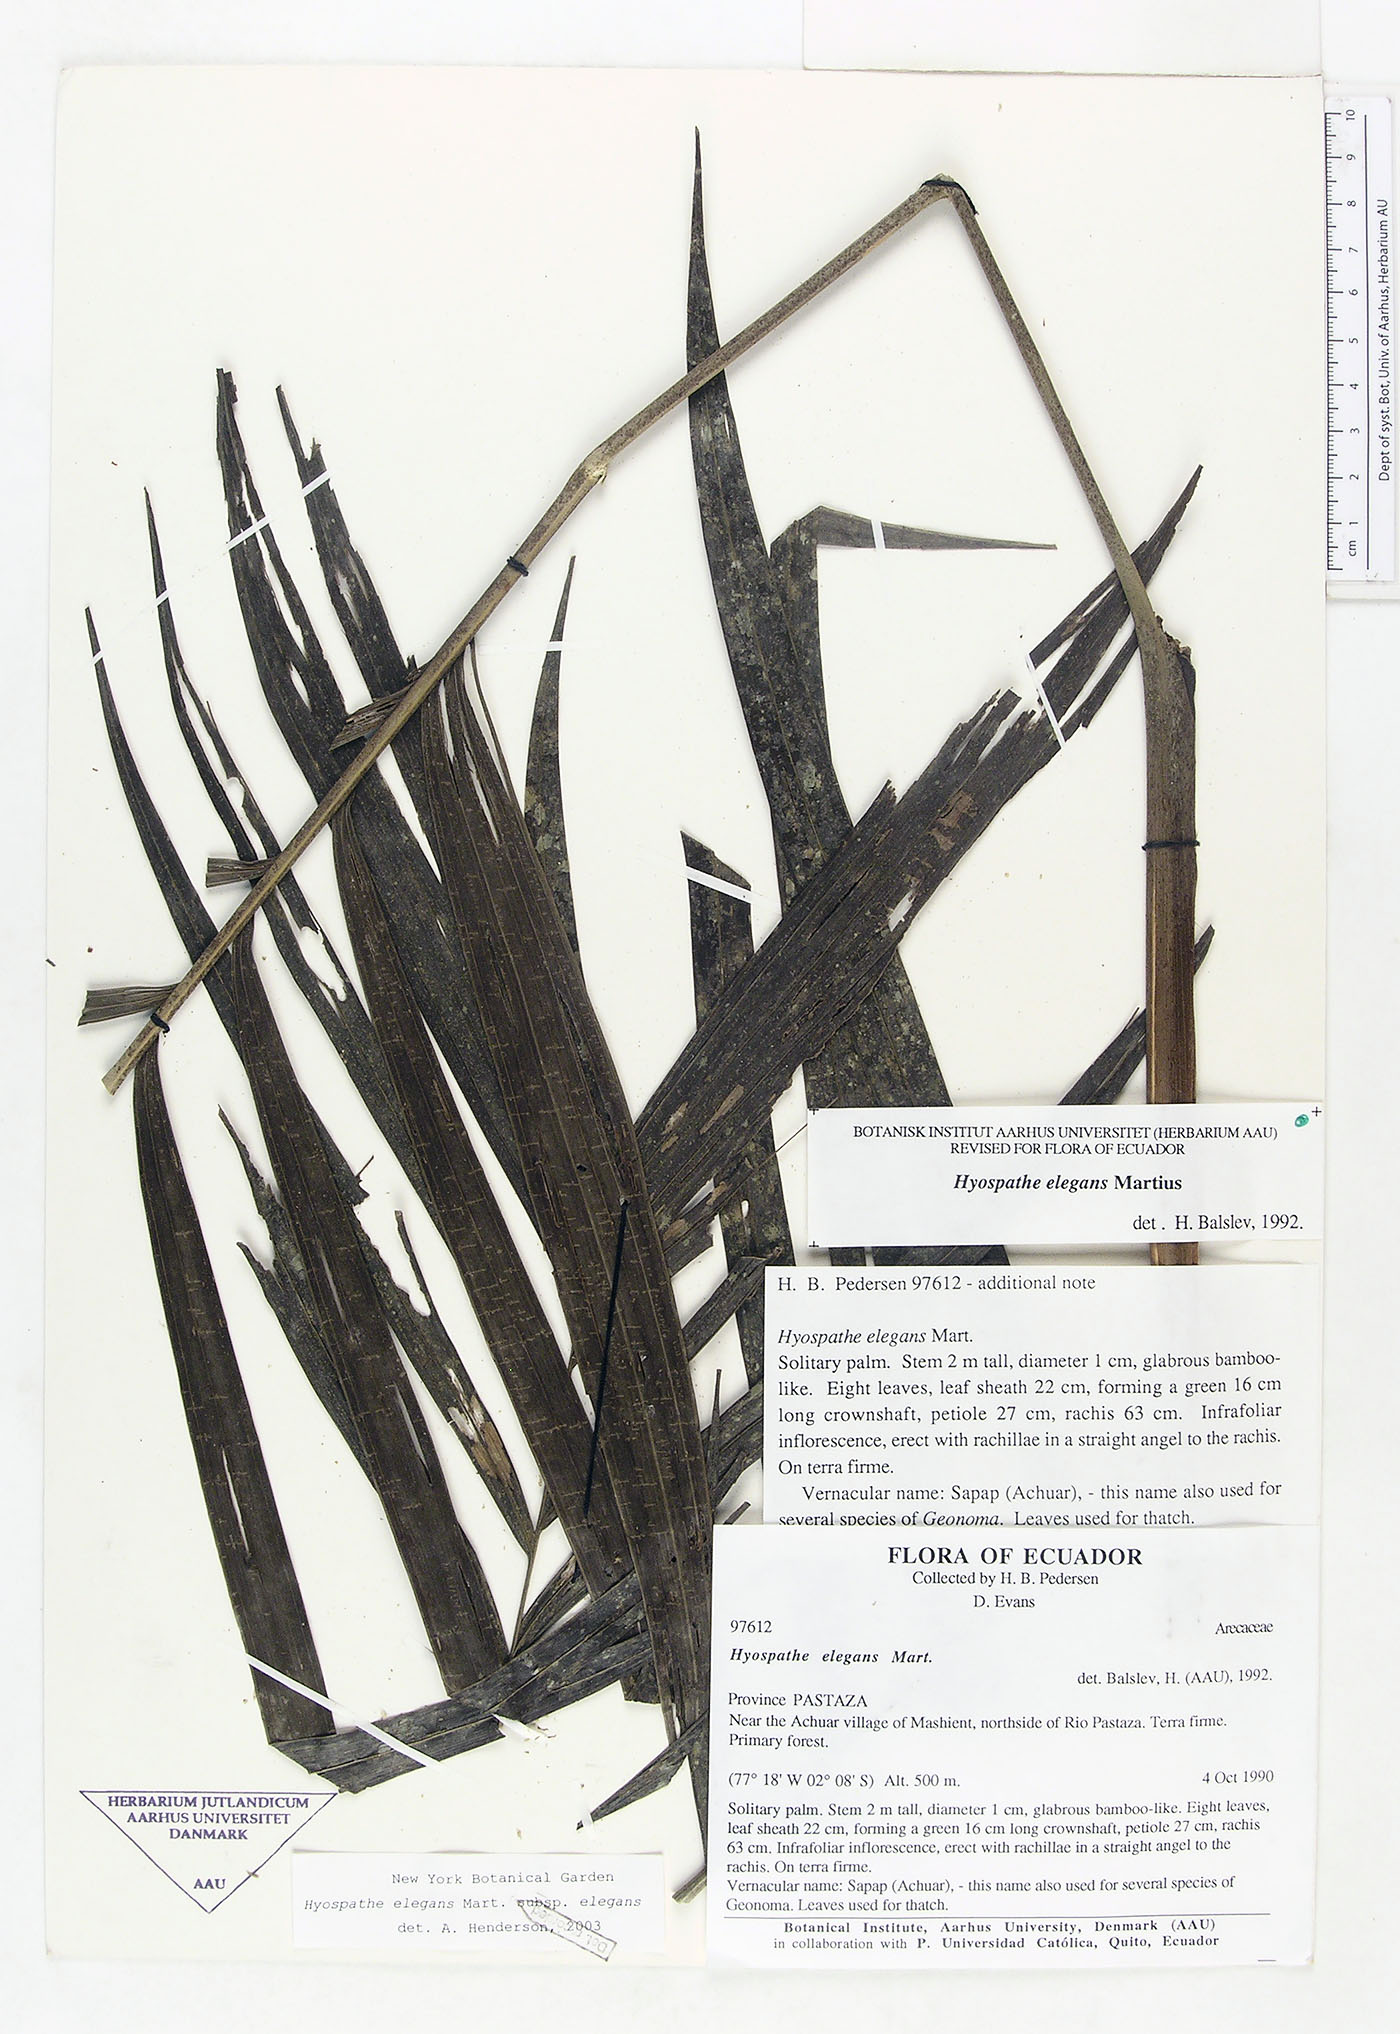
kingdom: Plantae
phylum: Tracheophyta
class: Liliopsida
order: Arecales
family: Arecaceae
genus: Hyospathe
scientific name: Hyospathe elegans
